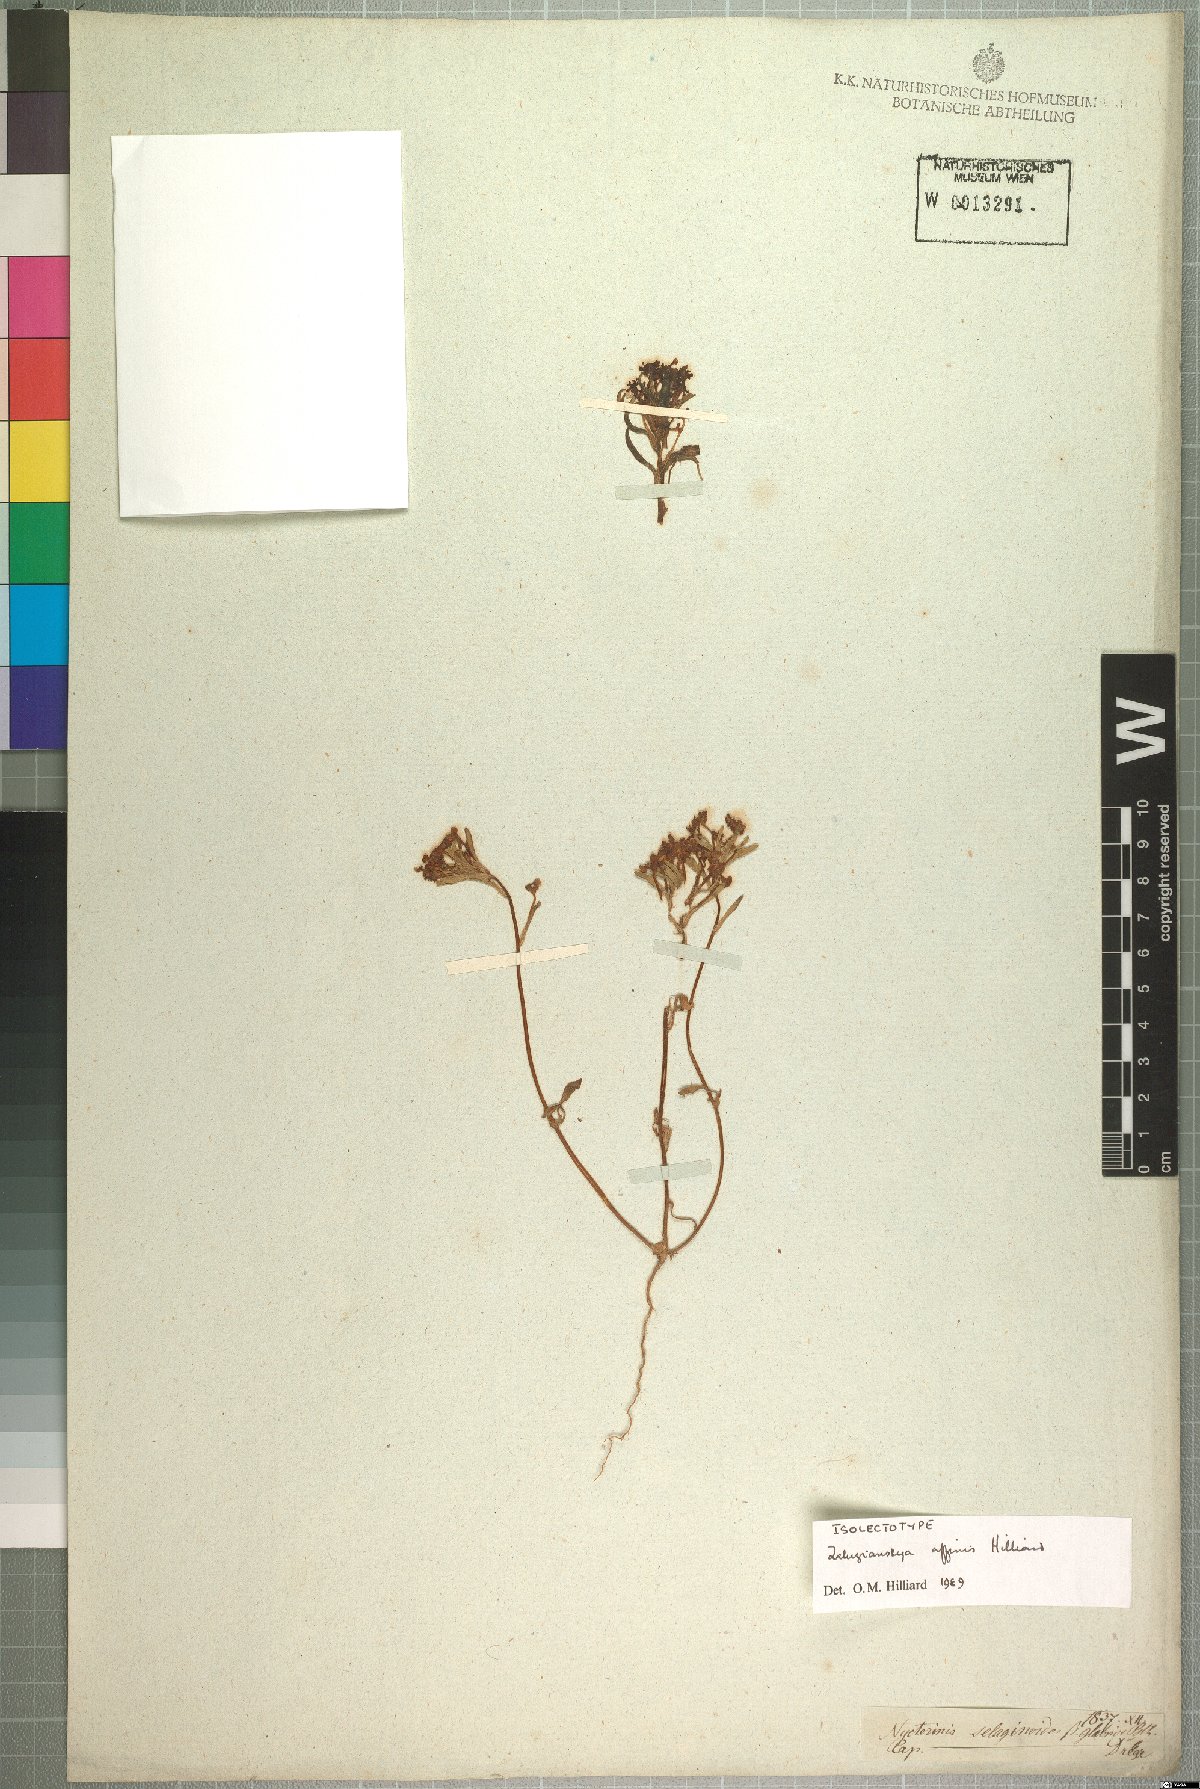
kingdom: Plantae
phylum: Tracheophyta
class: Magnoliopsida
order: Lamiales
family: Scrophulariaceae
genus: Zaluzianskya
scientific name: Zaluzianskya affinis
